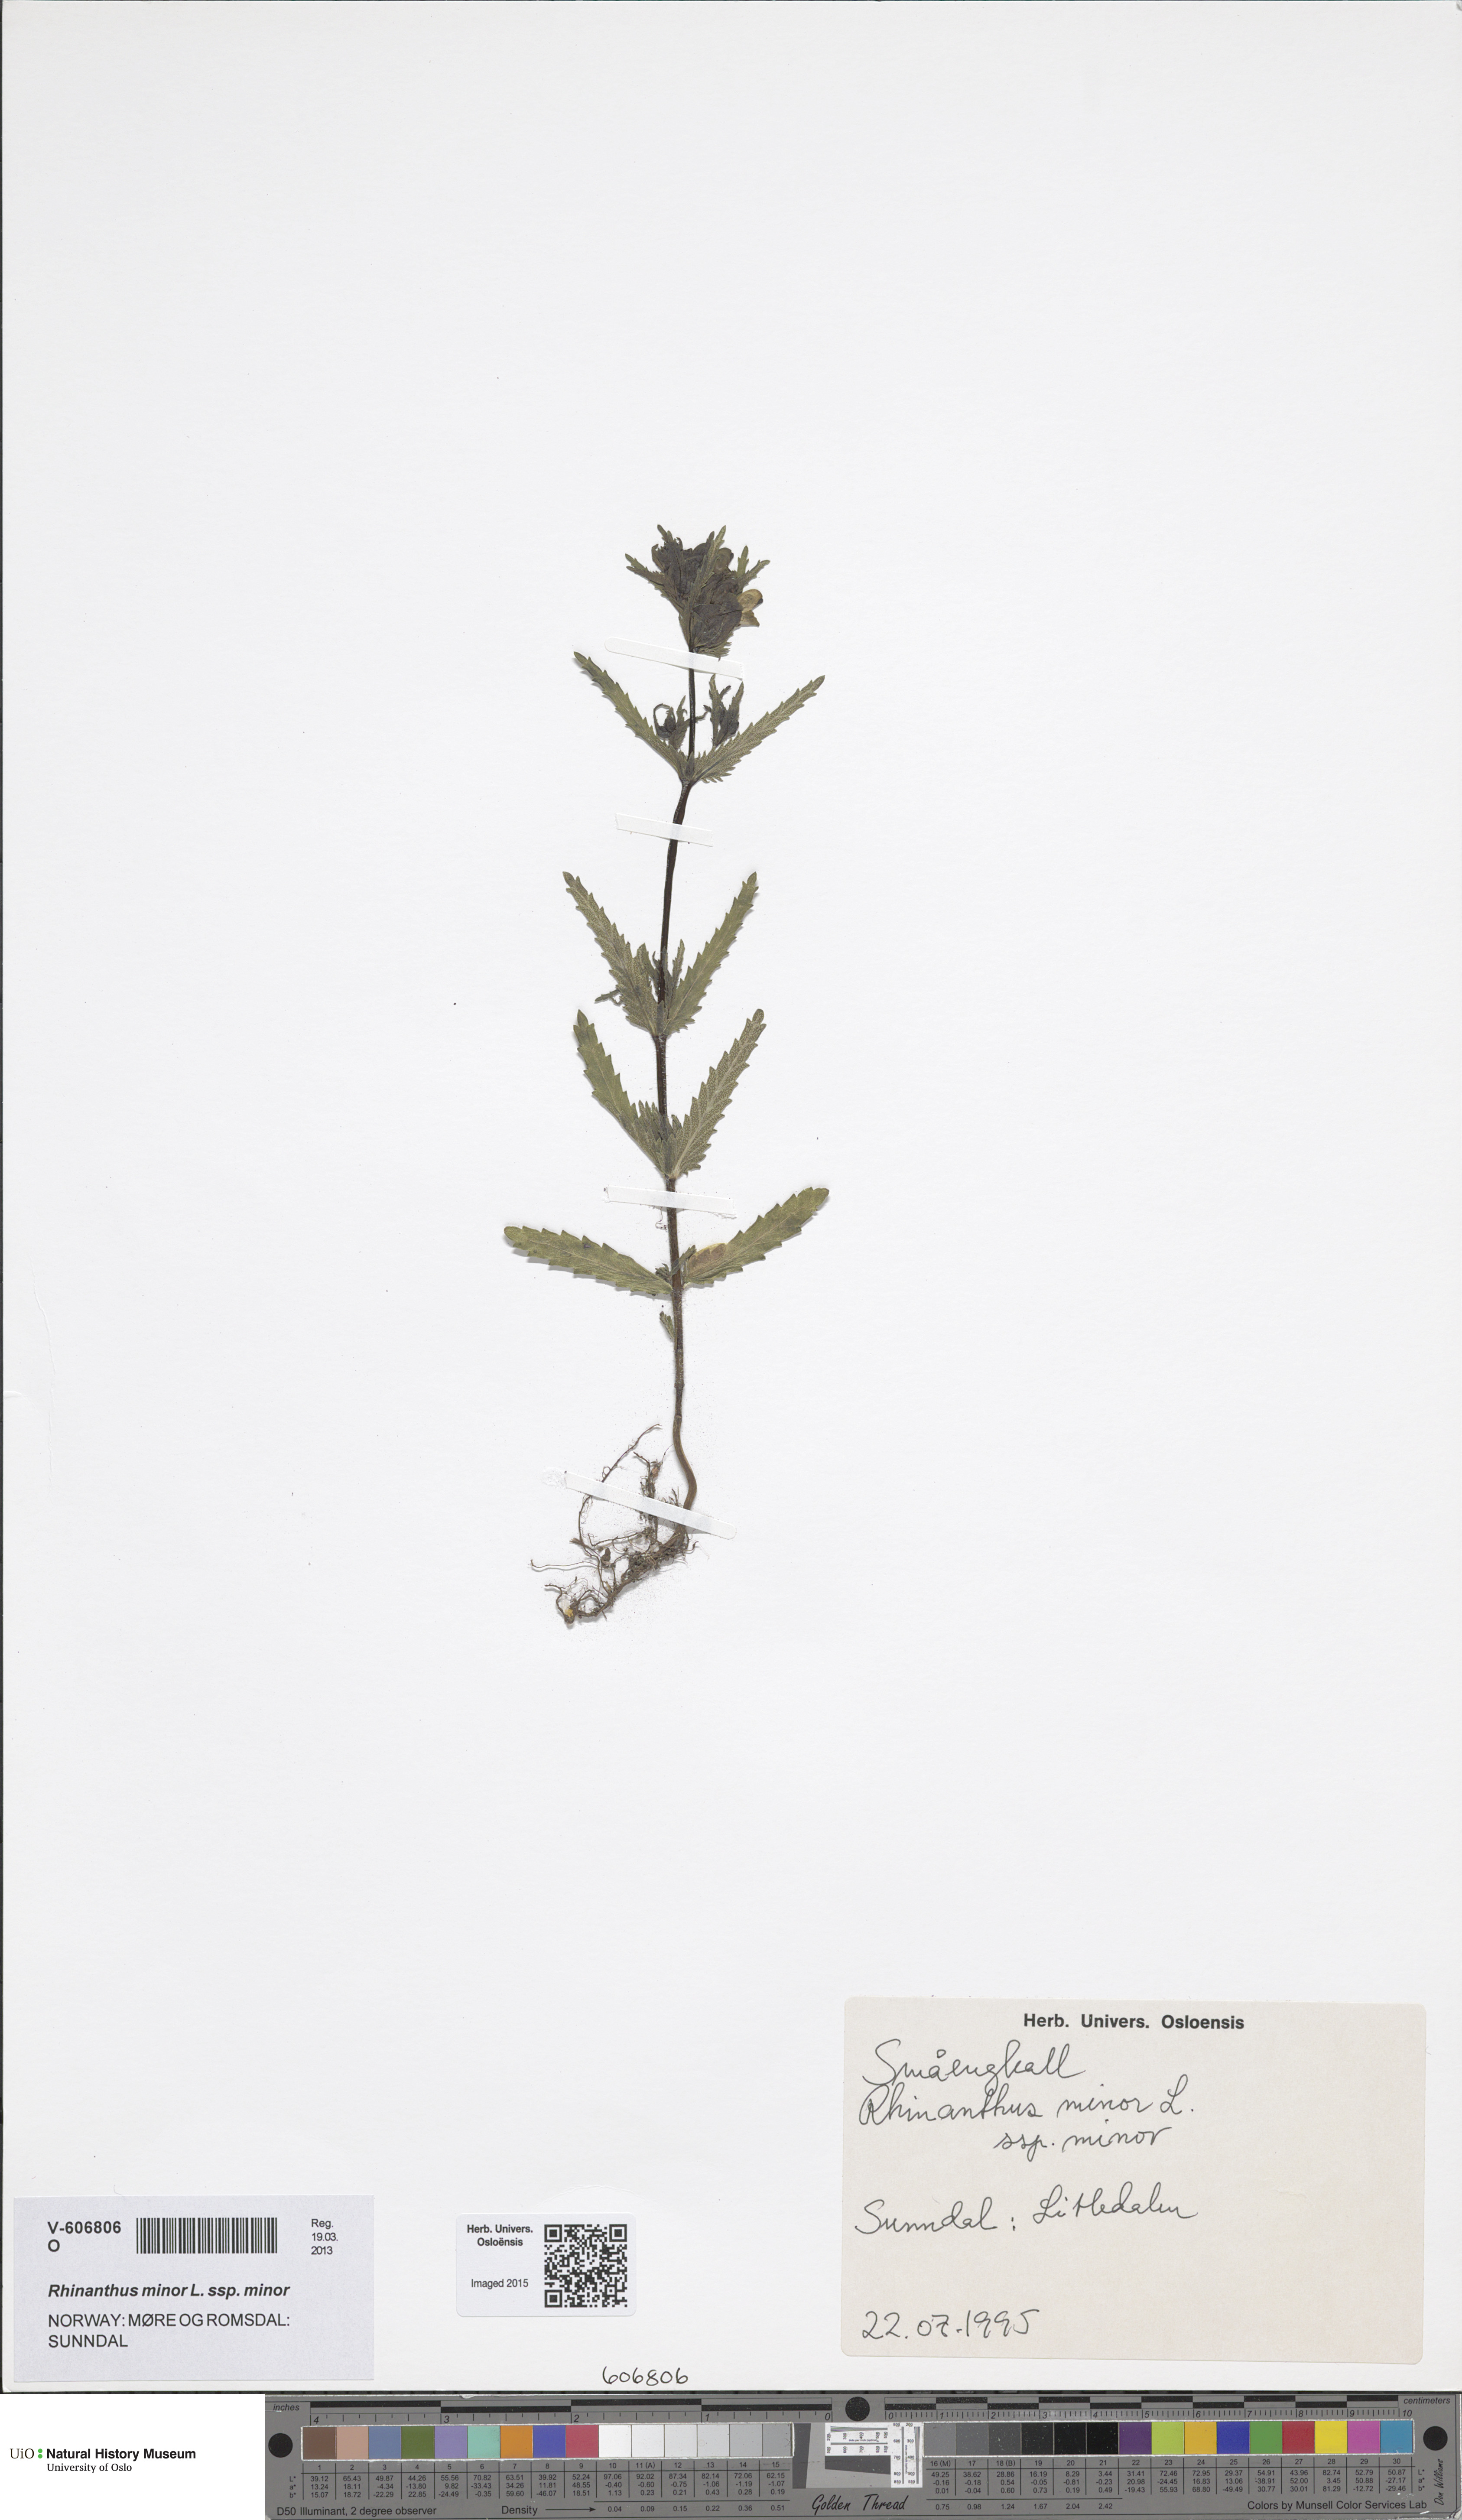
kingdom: Plantae
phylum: Tracheophyta
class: Magnoliopsida
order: Lamiales
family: Orobanchaceae
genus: Rhinanthus
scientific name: Rhinanthus minor
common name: Yellow-rattle
